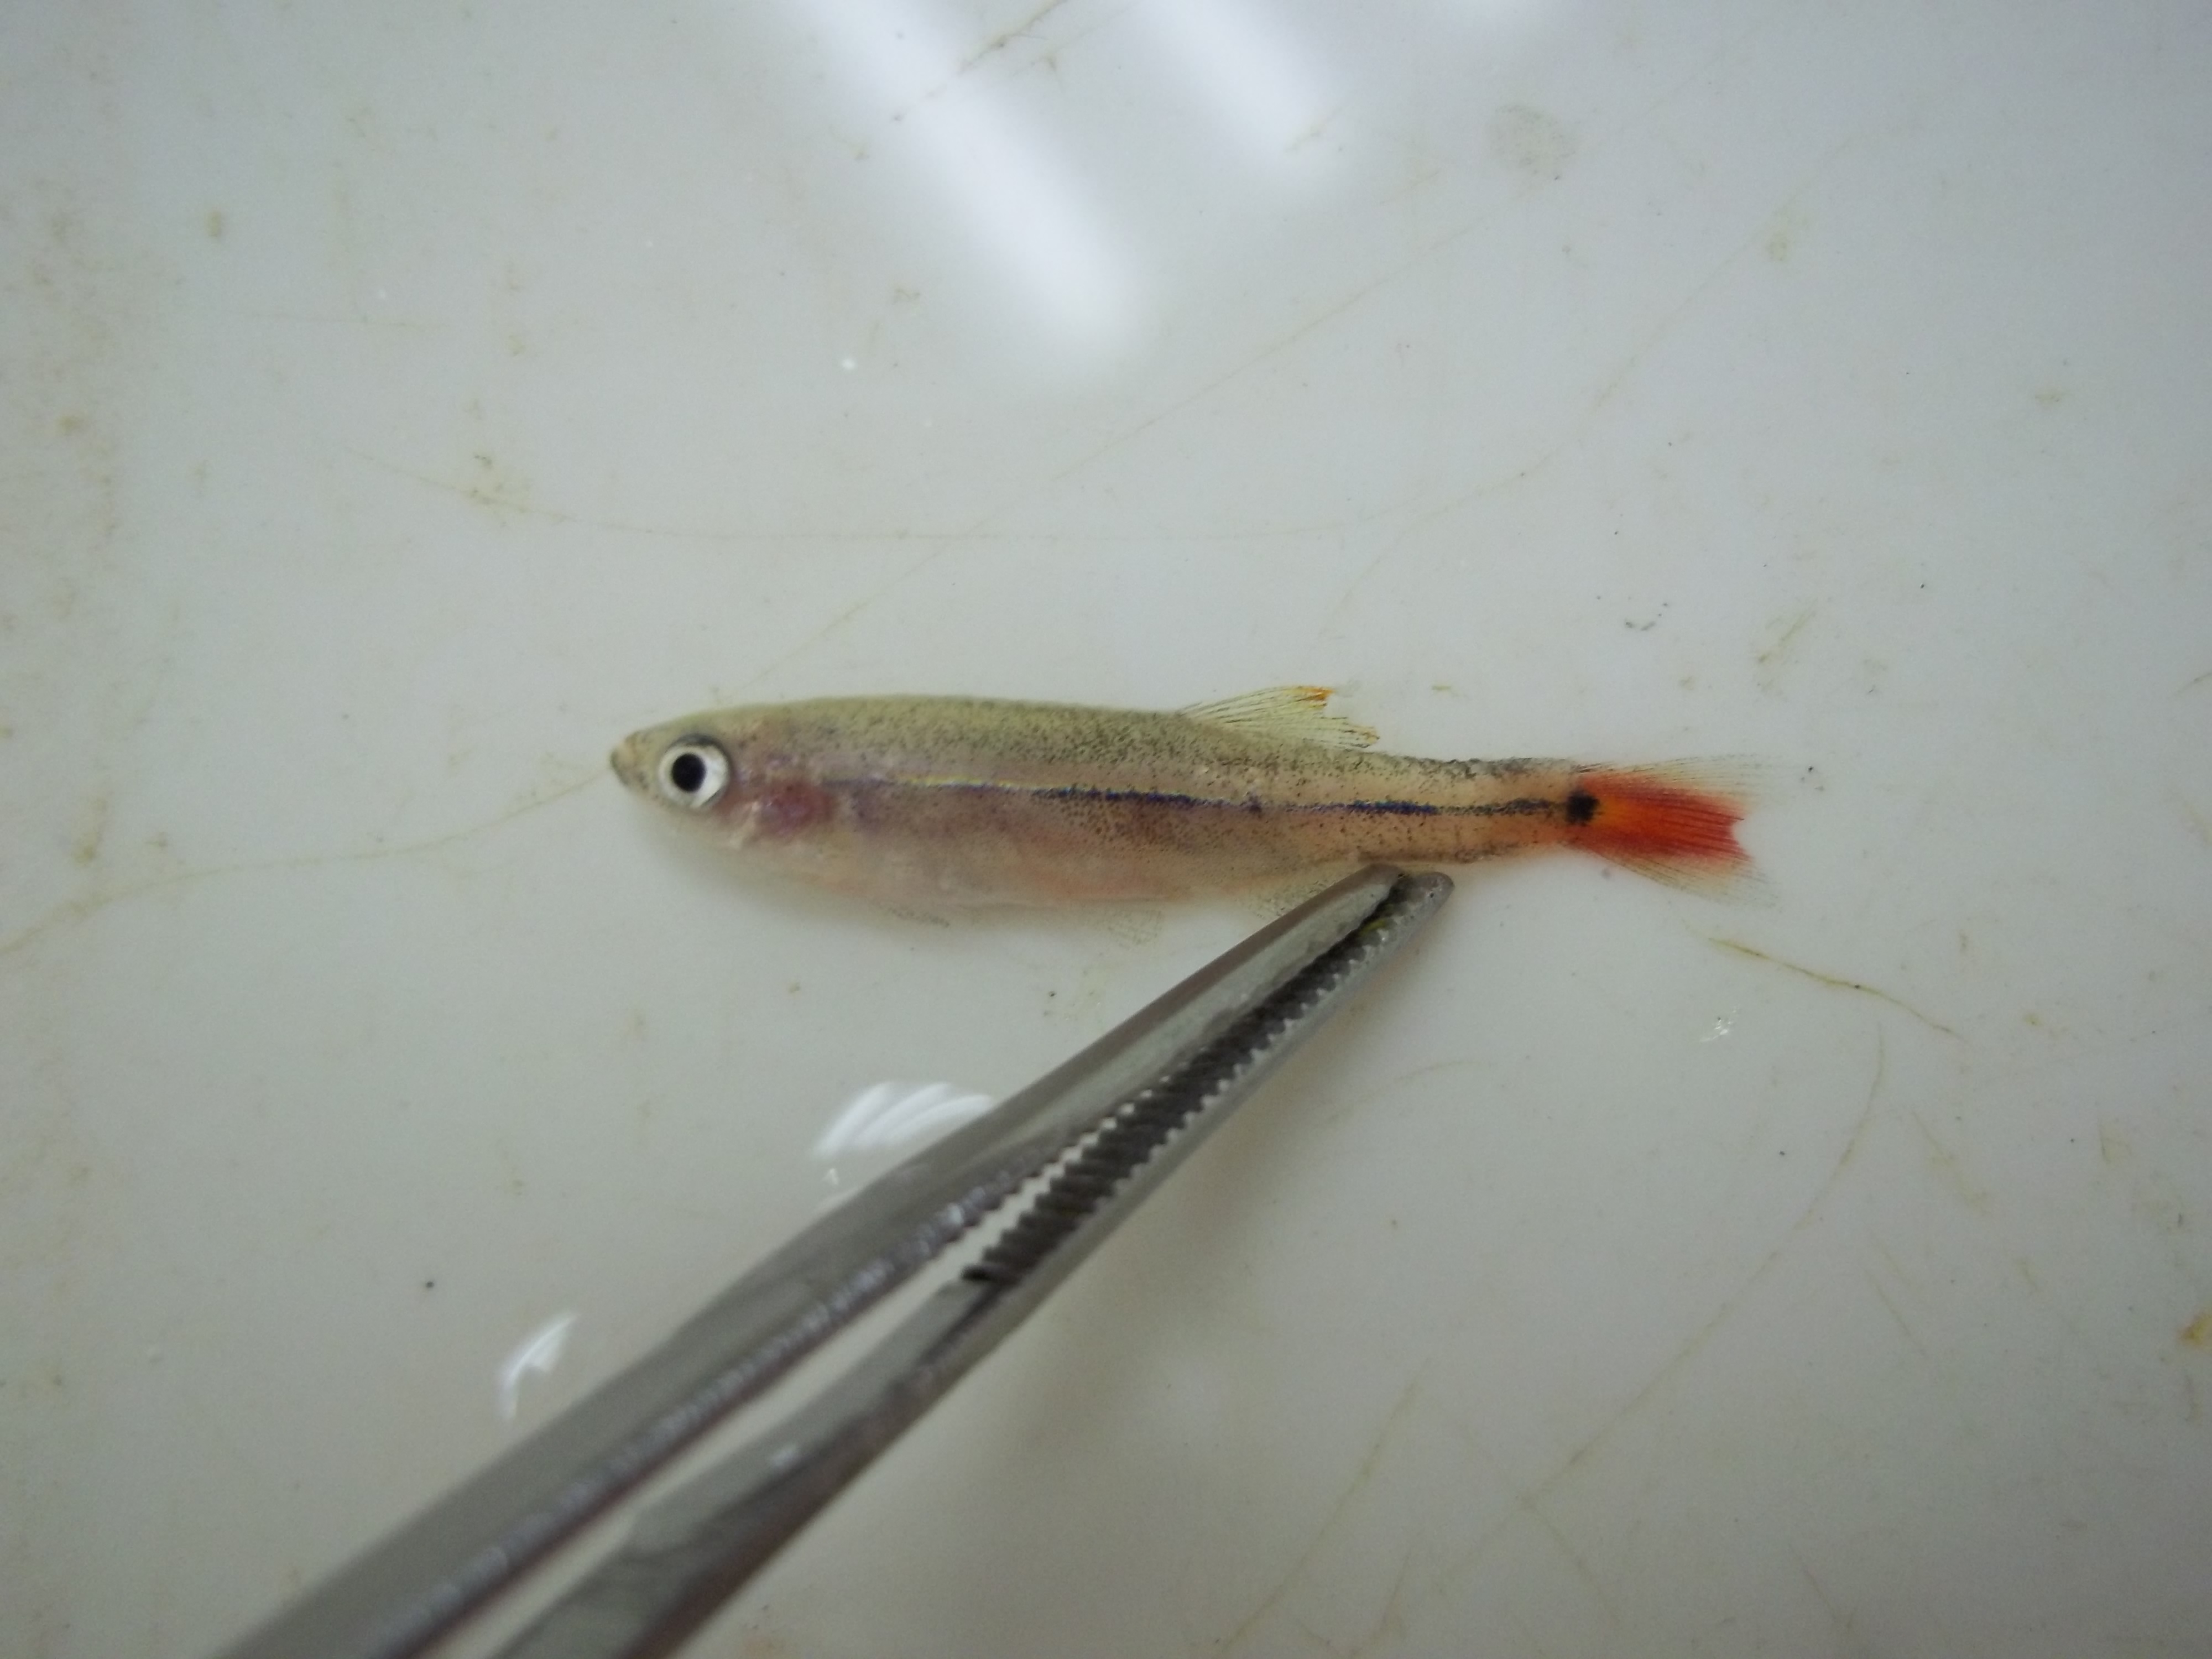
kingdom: Animalia
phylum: Chordata
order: Cypriniformes
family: Cyprinidae
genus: Tanichthys
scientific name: Tanichthys albonubes
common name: White cloud mountain minnow
